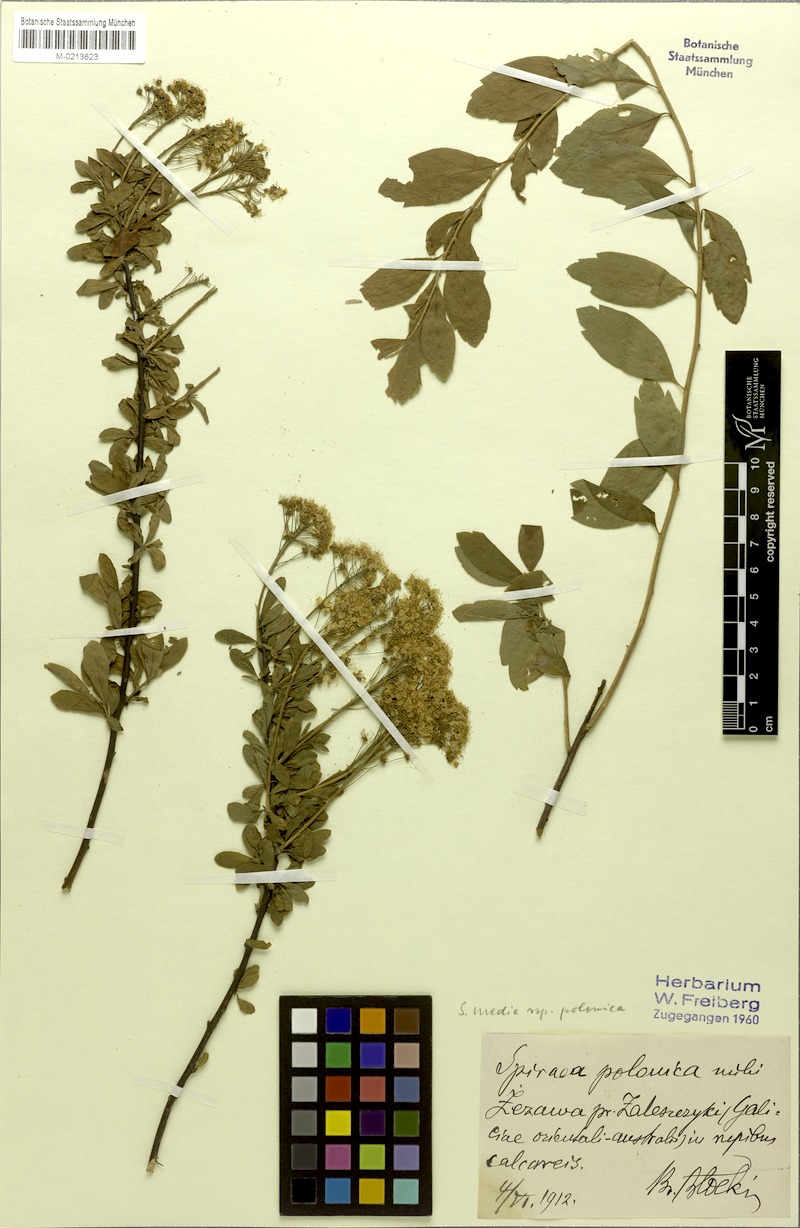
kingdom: Plantae
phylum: Tracheophyta
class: Magnoliopsida
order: Rosales
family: Rosaceae
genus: Spiraea
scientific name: Spiraea media
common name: Russian spiraea
